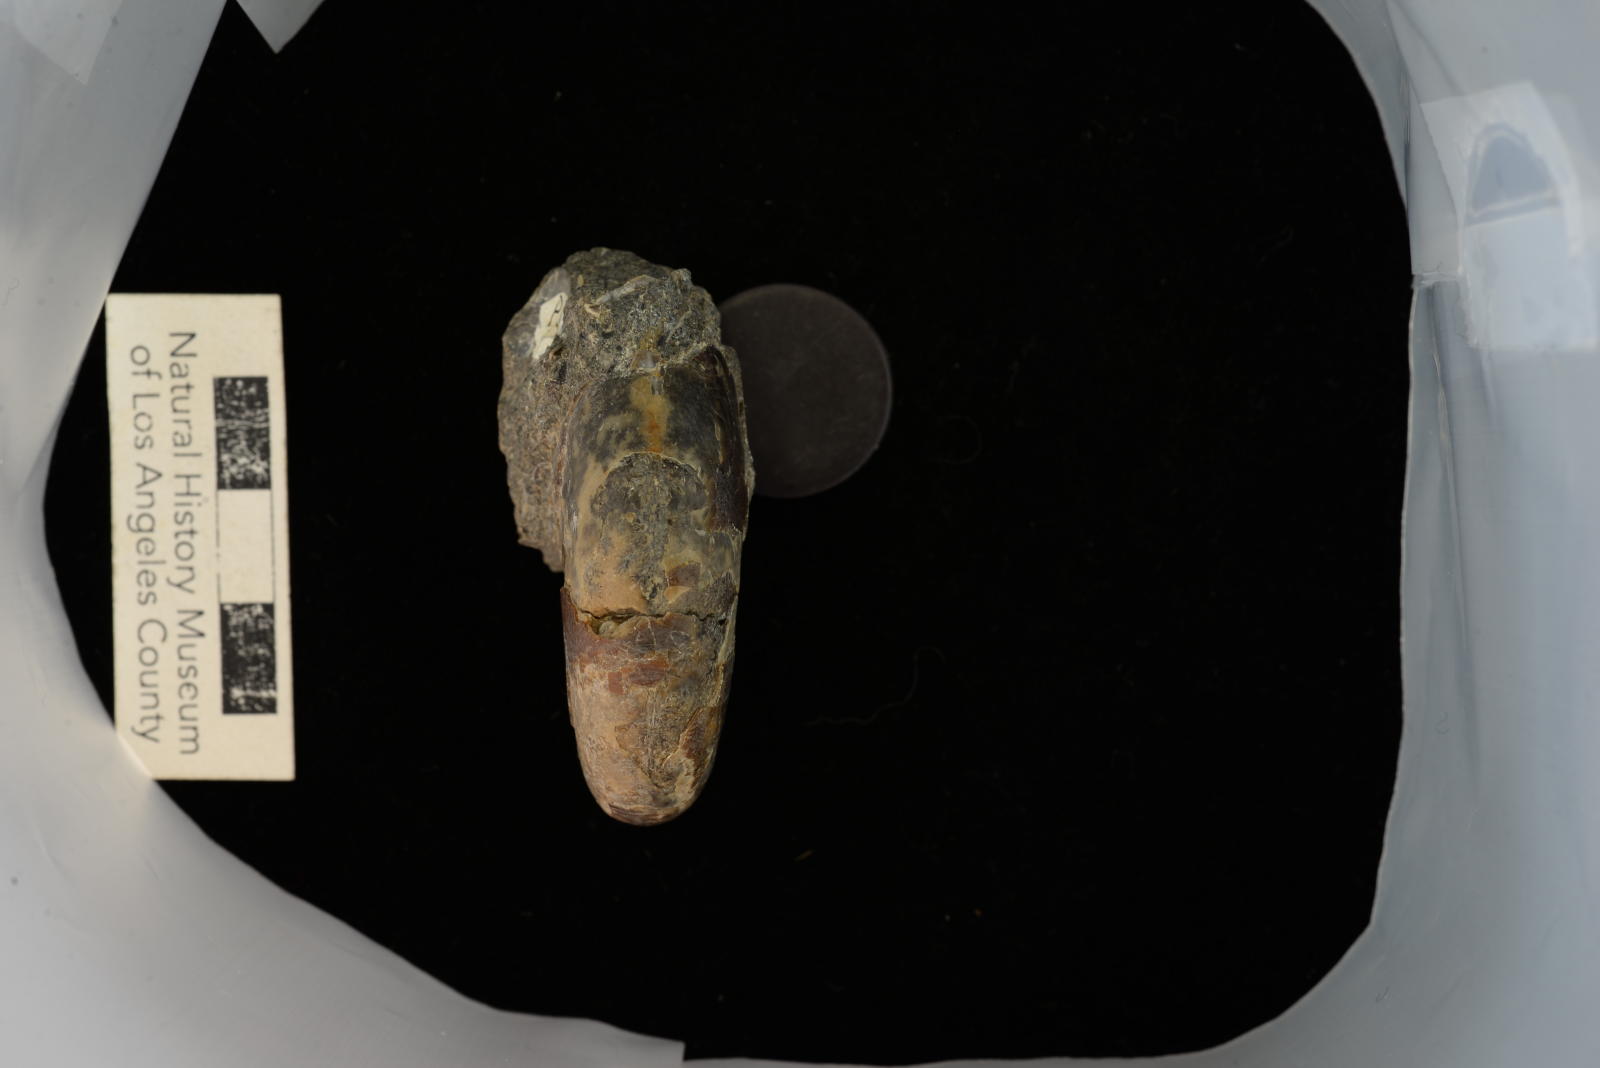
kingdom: Animalia
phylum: Mollusca
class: Cephalopoda
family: Desmoceratidae
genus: Desmoceras
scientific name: Desmoceras barryae
